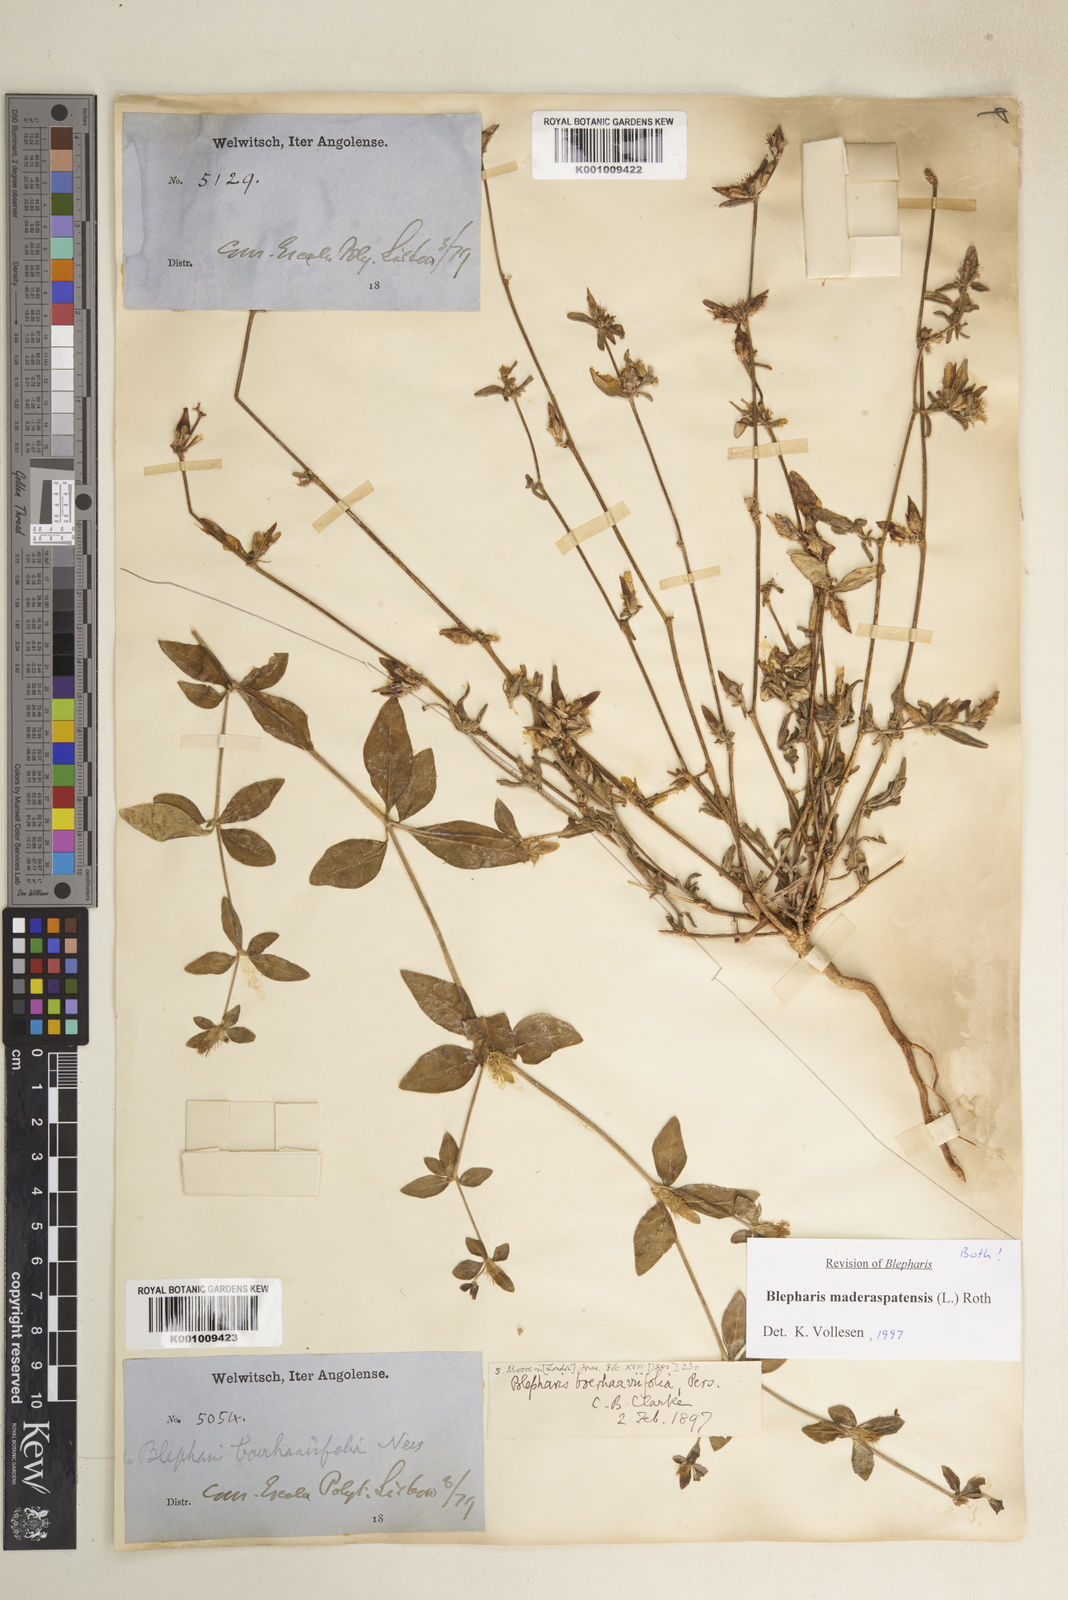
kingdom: Plantae
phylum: Tracheophyta
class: Magnoliopsida
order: Lamiales
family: Acanthaceae
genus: Blepharis
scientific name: Blepharis maderaspatensis
